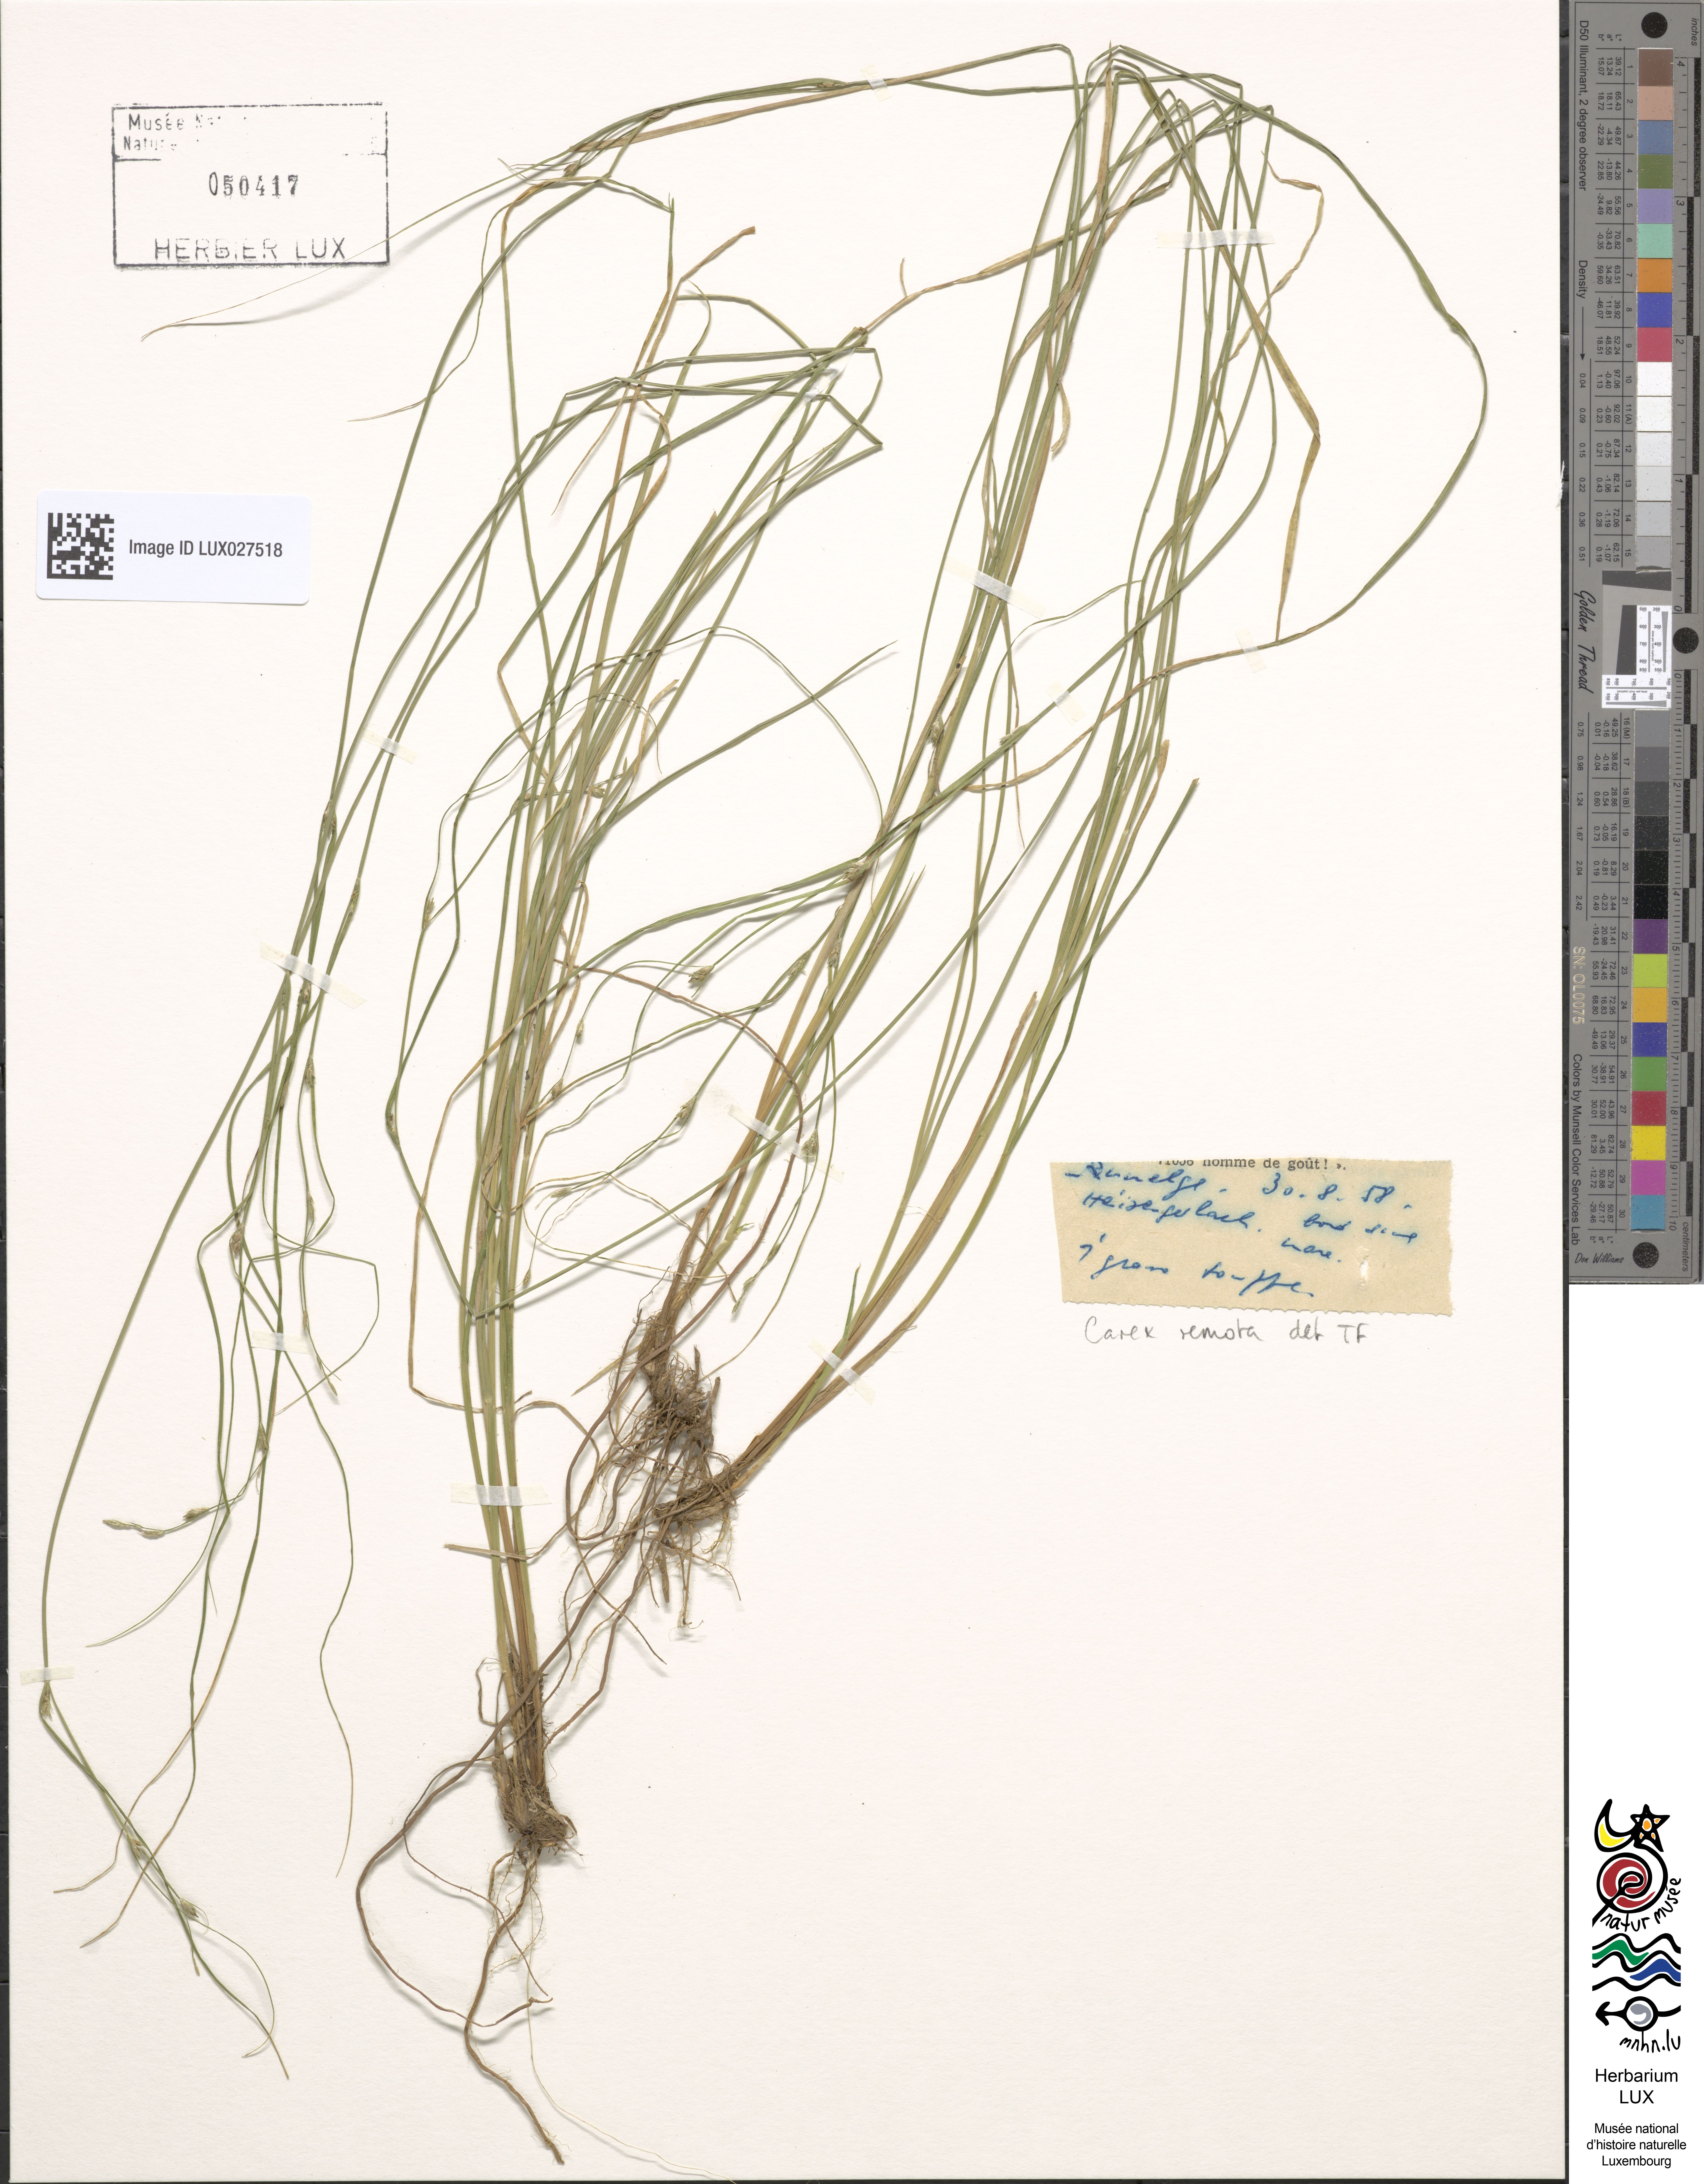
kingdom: Plantae
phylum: Tracheophyta
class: Liliopsida
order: Poales
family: Cyperaceae
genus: Carex
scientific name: Carex remota
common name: Remote sedge
